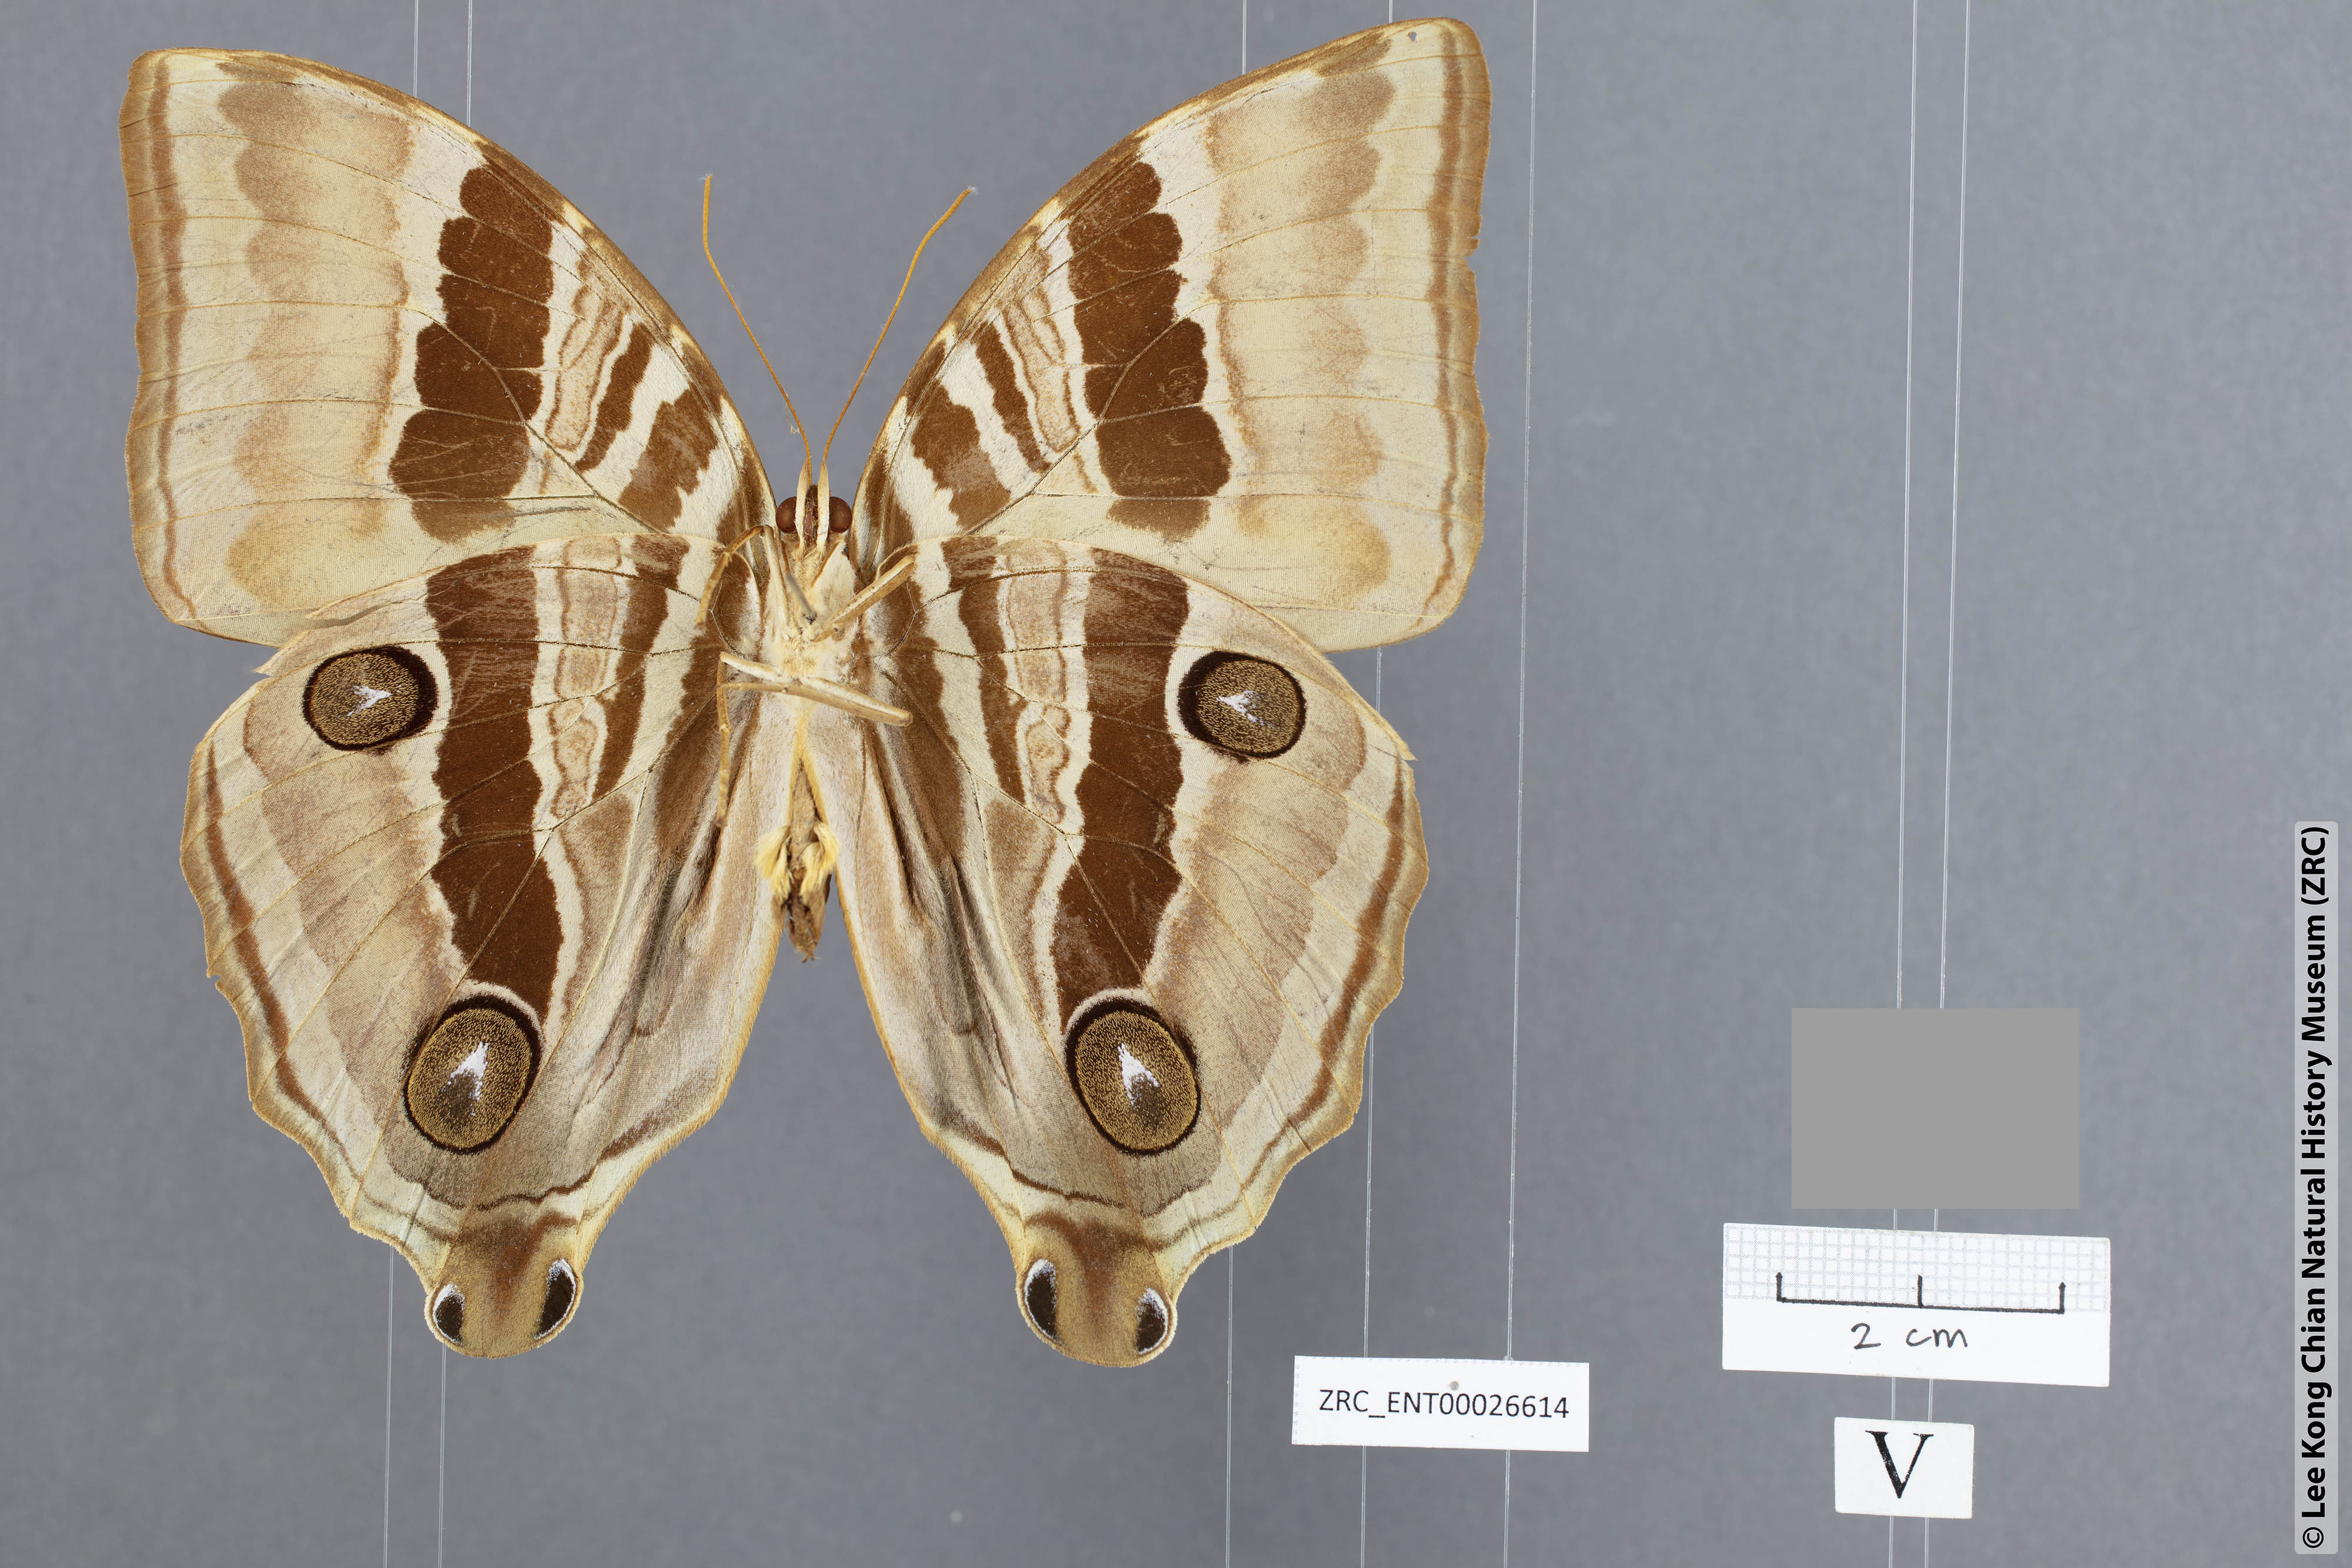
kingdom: Animalia
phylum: Arthropoda
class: Insecta
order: Lepidoptera
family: Nymphalidae
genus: Amathusia
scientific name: Amathusia
